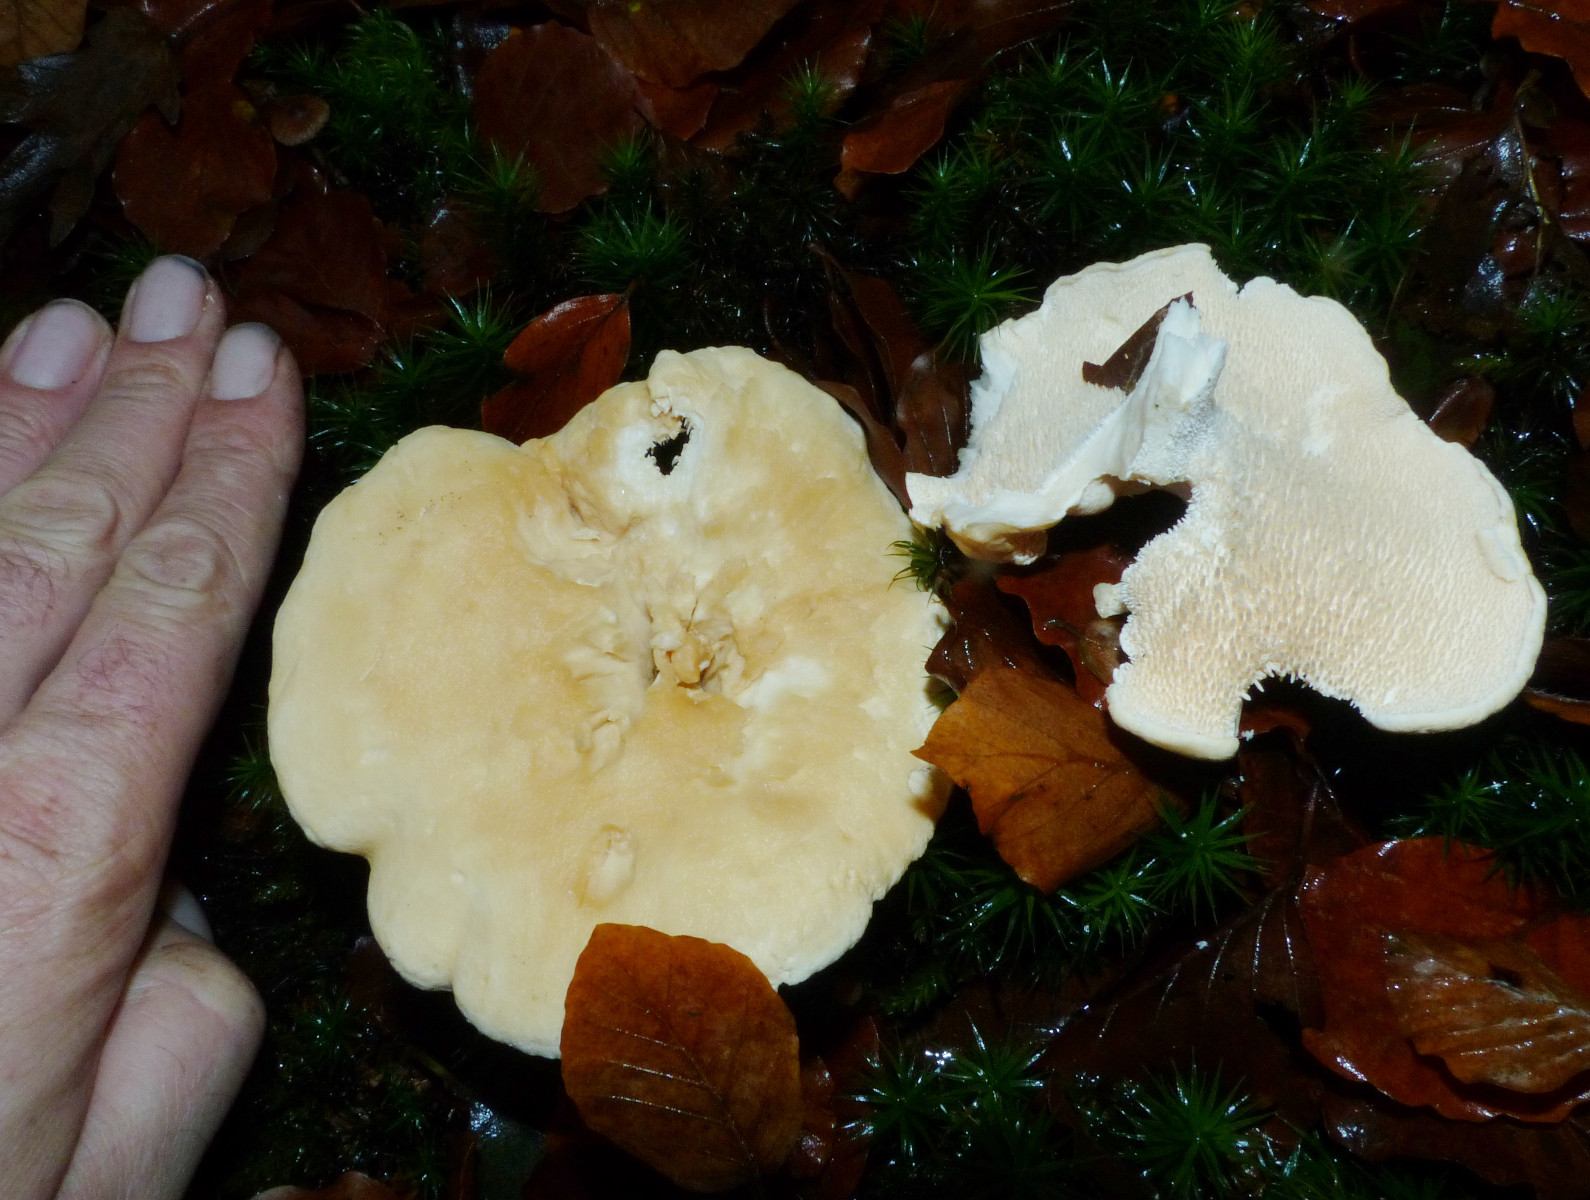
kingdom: Fungi
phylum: Basidiomycota
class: Agaricomycetes
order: Cantharellales
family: Hydnaceae
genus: Hydnum
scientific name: Hydnum
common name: pigsvamp
